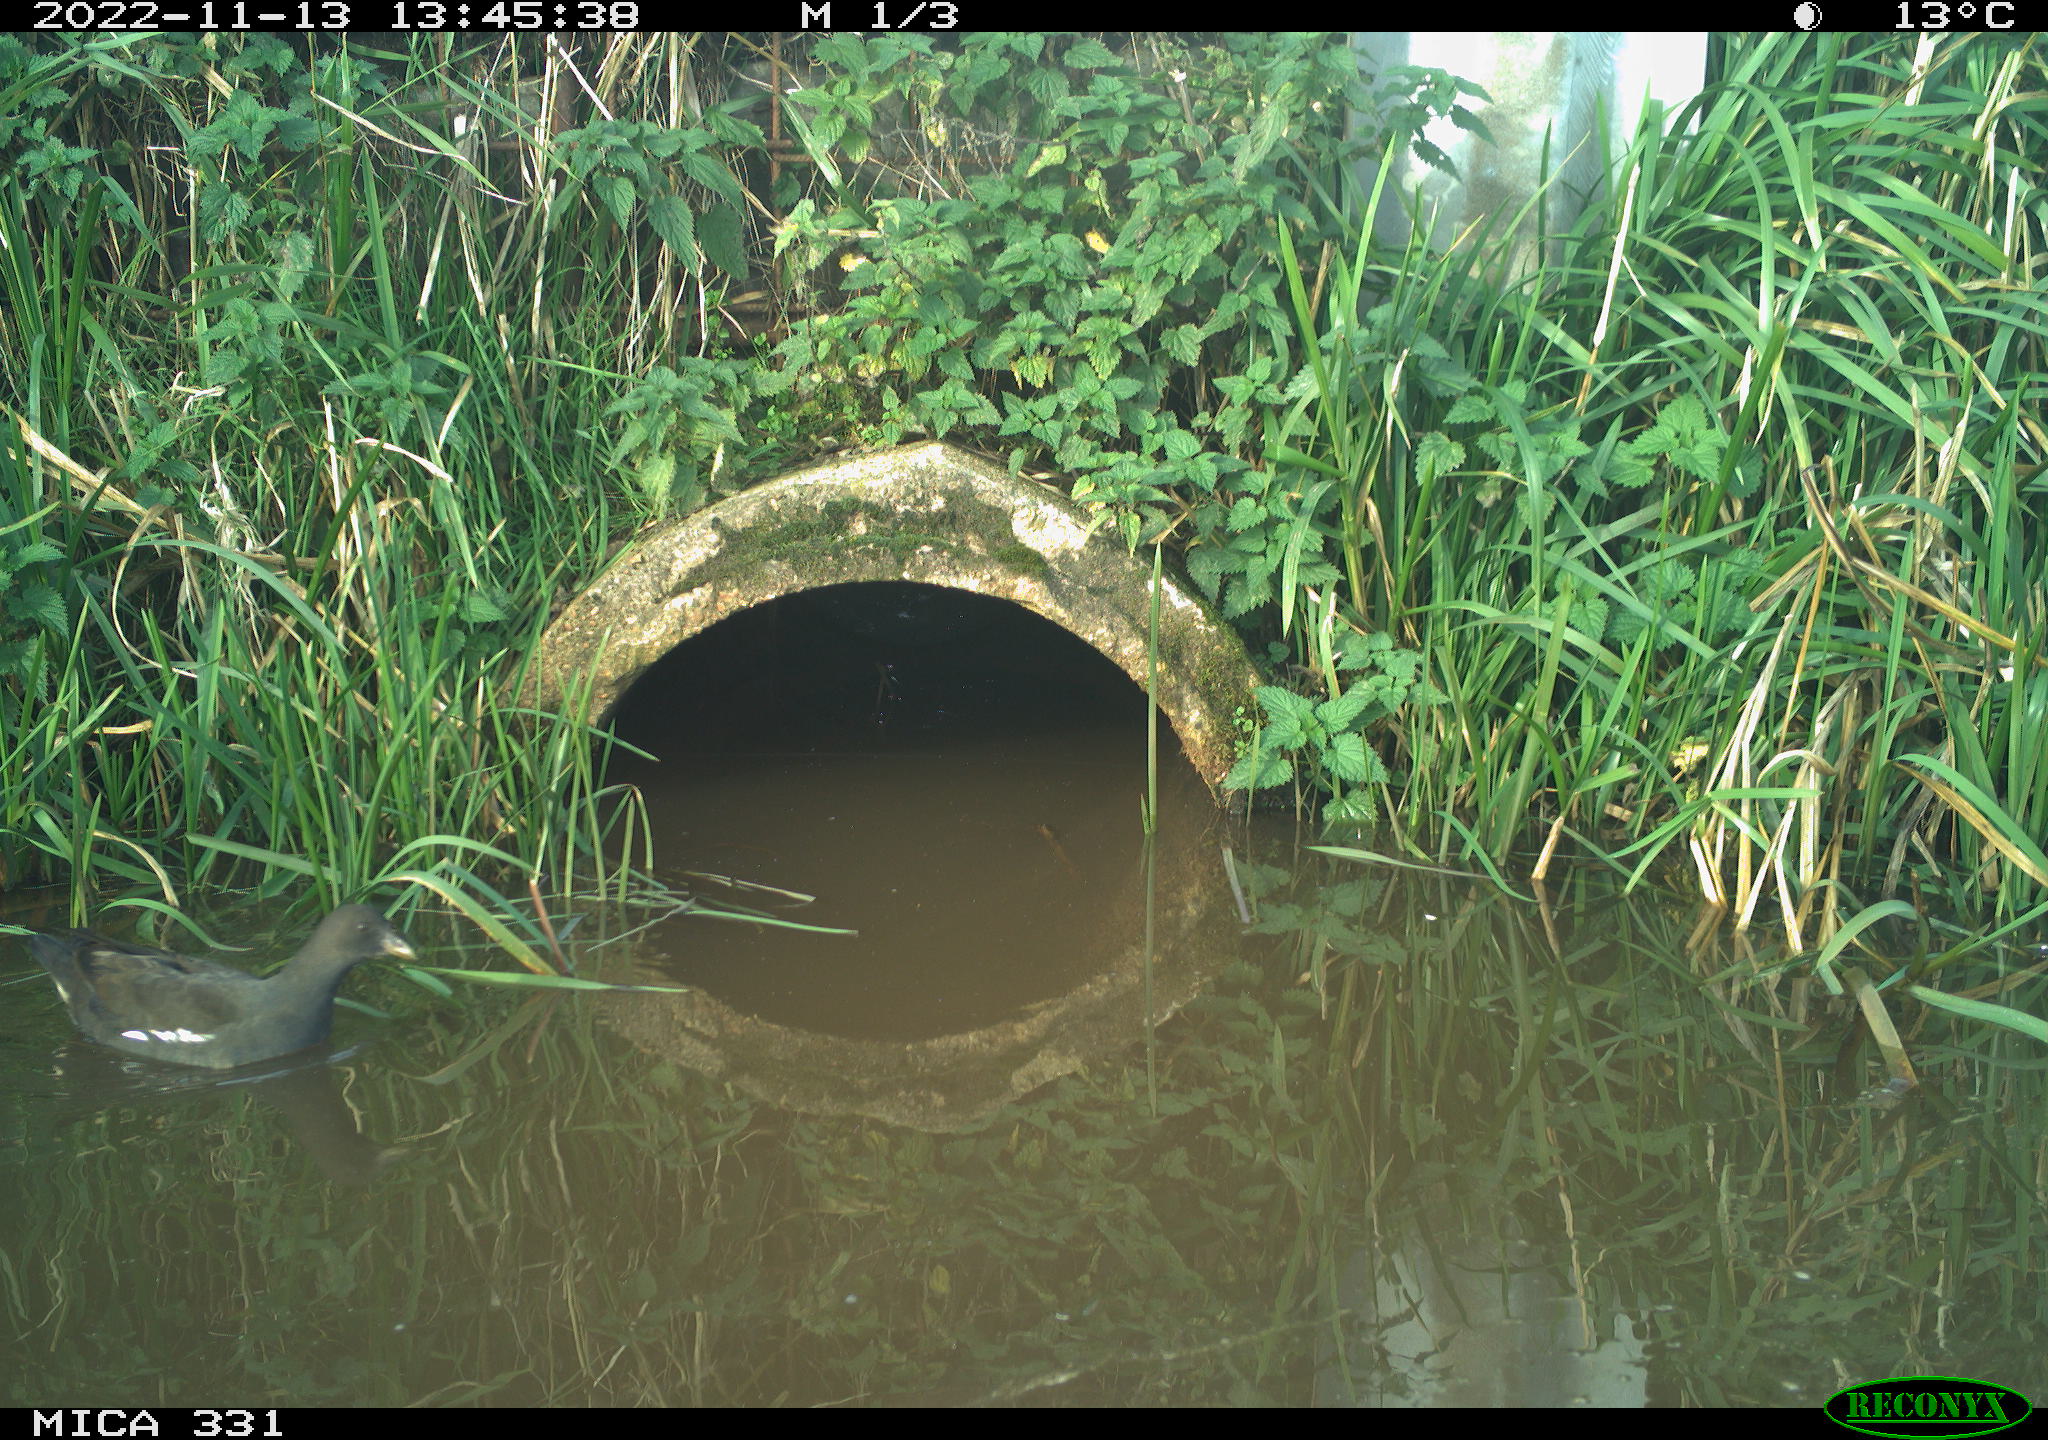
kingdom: Animalia
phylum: Chordata
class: Aves
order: Gruiformes
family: Rallidae
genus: Gallinula
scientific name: Gallinula chloropus
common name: Common moorhen
